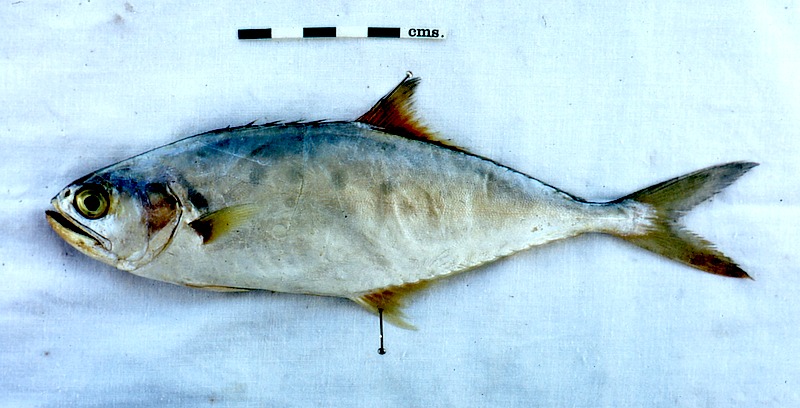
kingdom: Animalia
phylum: Chordata
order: Perciformes
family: Carangidae
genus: Scomberoides
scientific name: Scomberoides lysan
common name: Doublespotted queenfish
